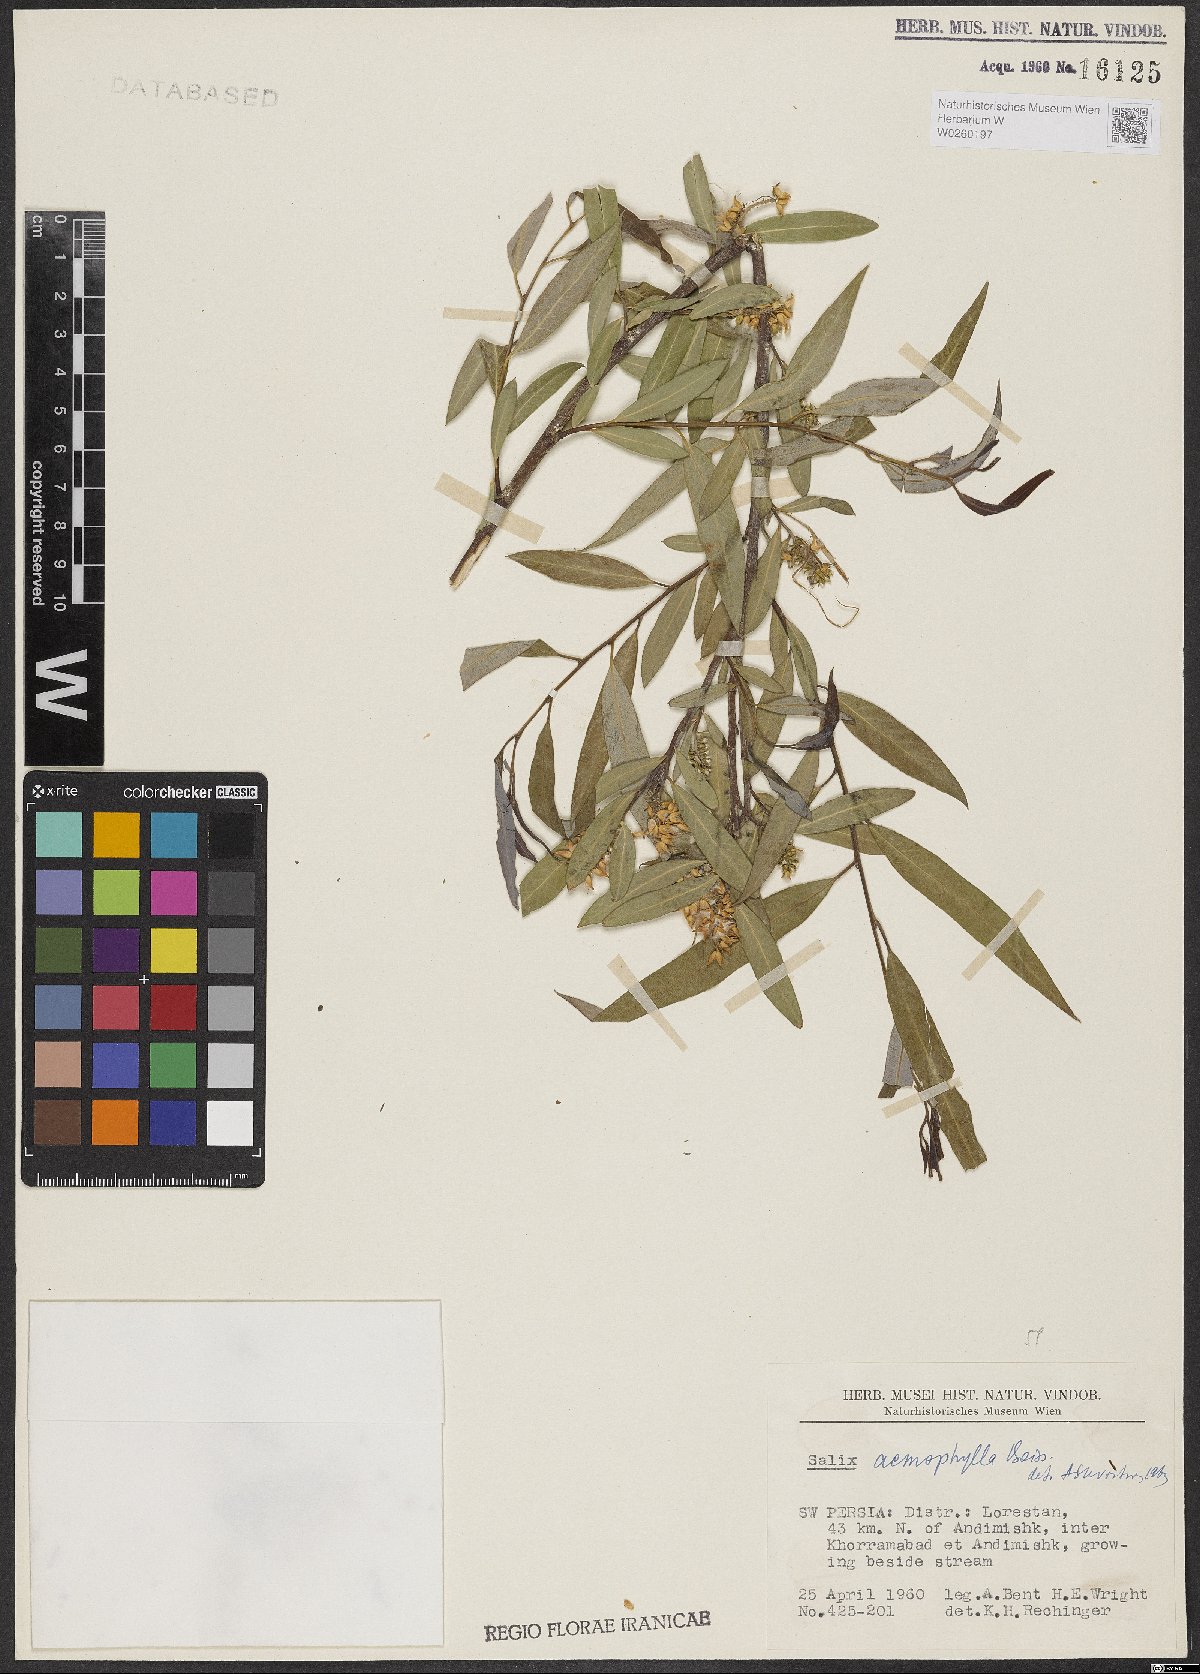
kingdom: Plantae
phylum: Tracheophyta
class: Magnoliopsida
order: Malpighiales
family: Salicaceae
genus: Salix
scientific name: Salix acmophylla
